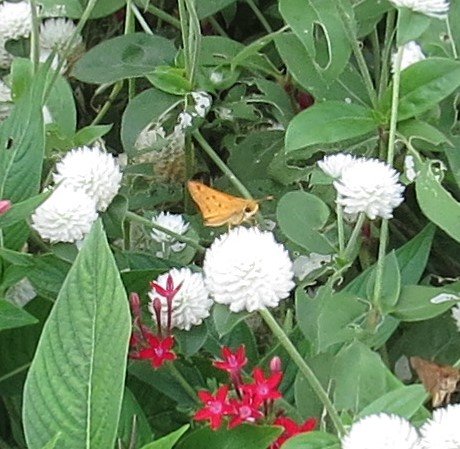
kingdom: Animalia
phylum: Arthropoda
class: Insecta
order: Lepidoptera
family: Hesperiidae
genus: Hylephila
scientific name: Hylephila phyleus
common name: Fiery Skipper
